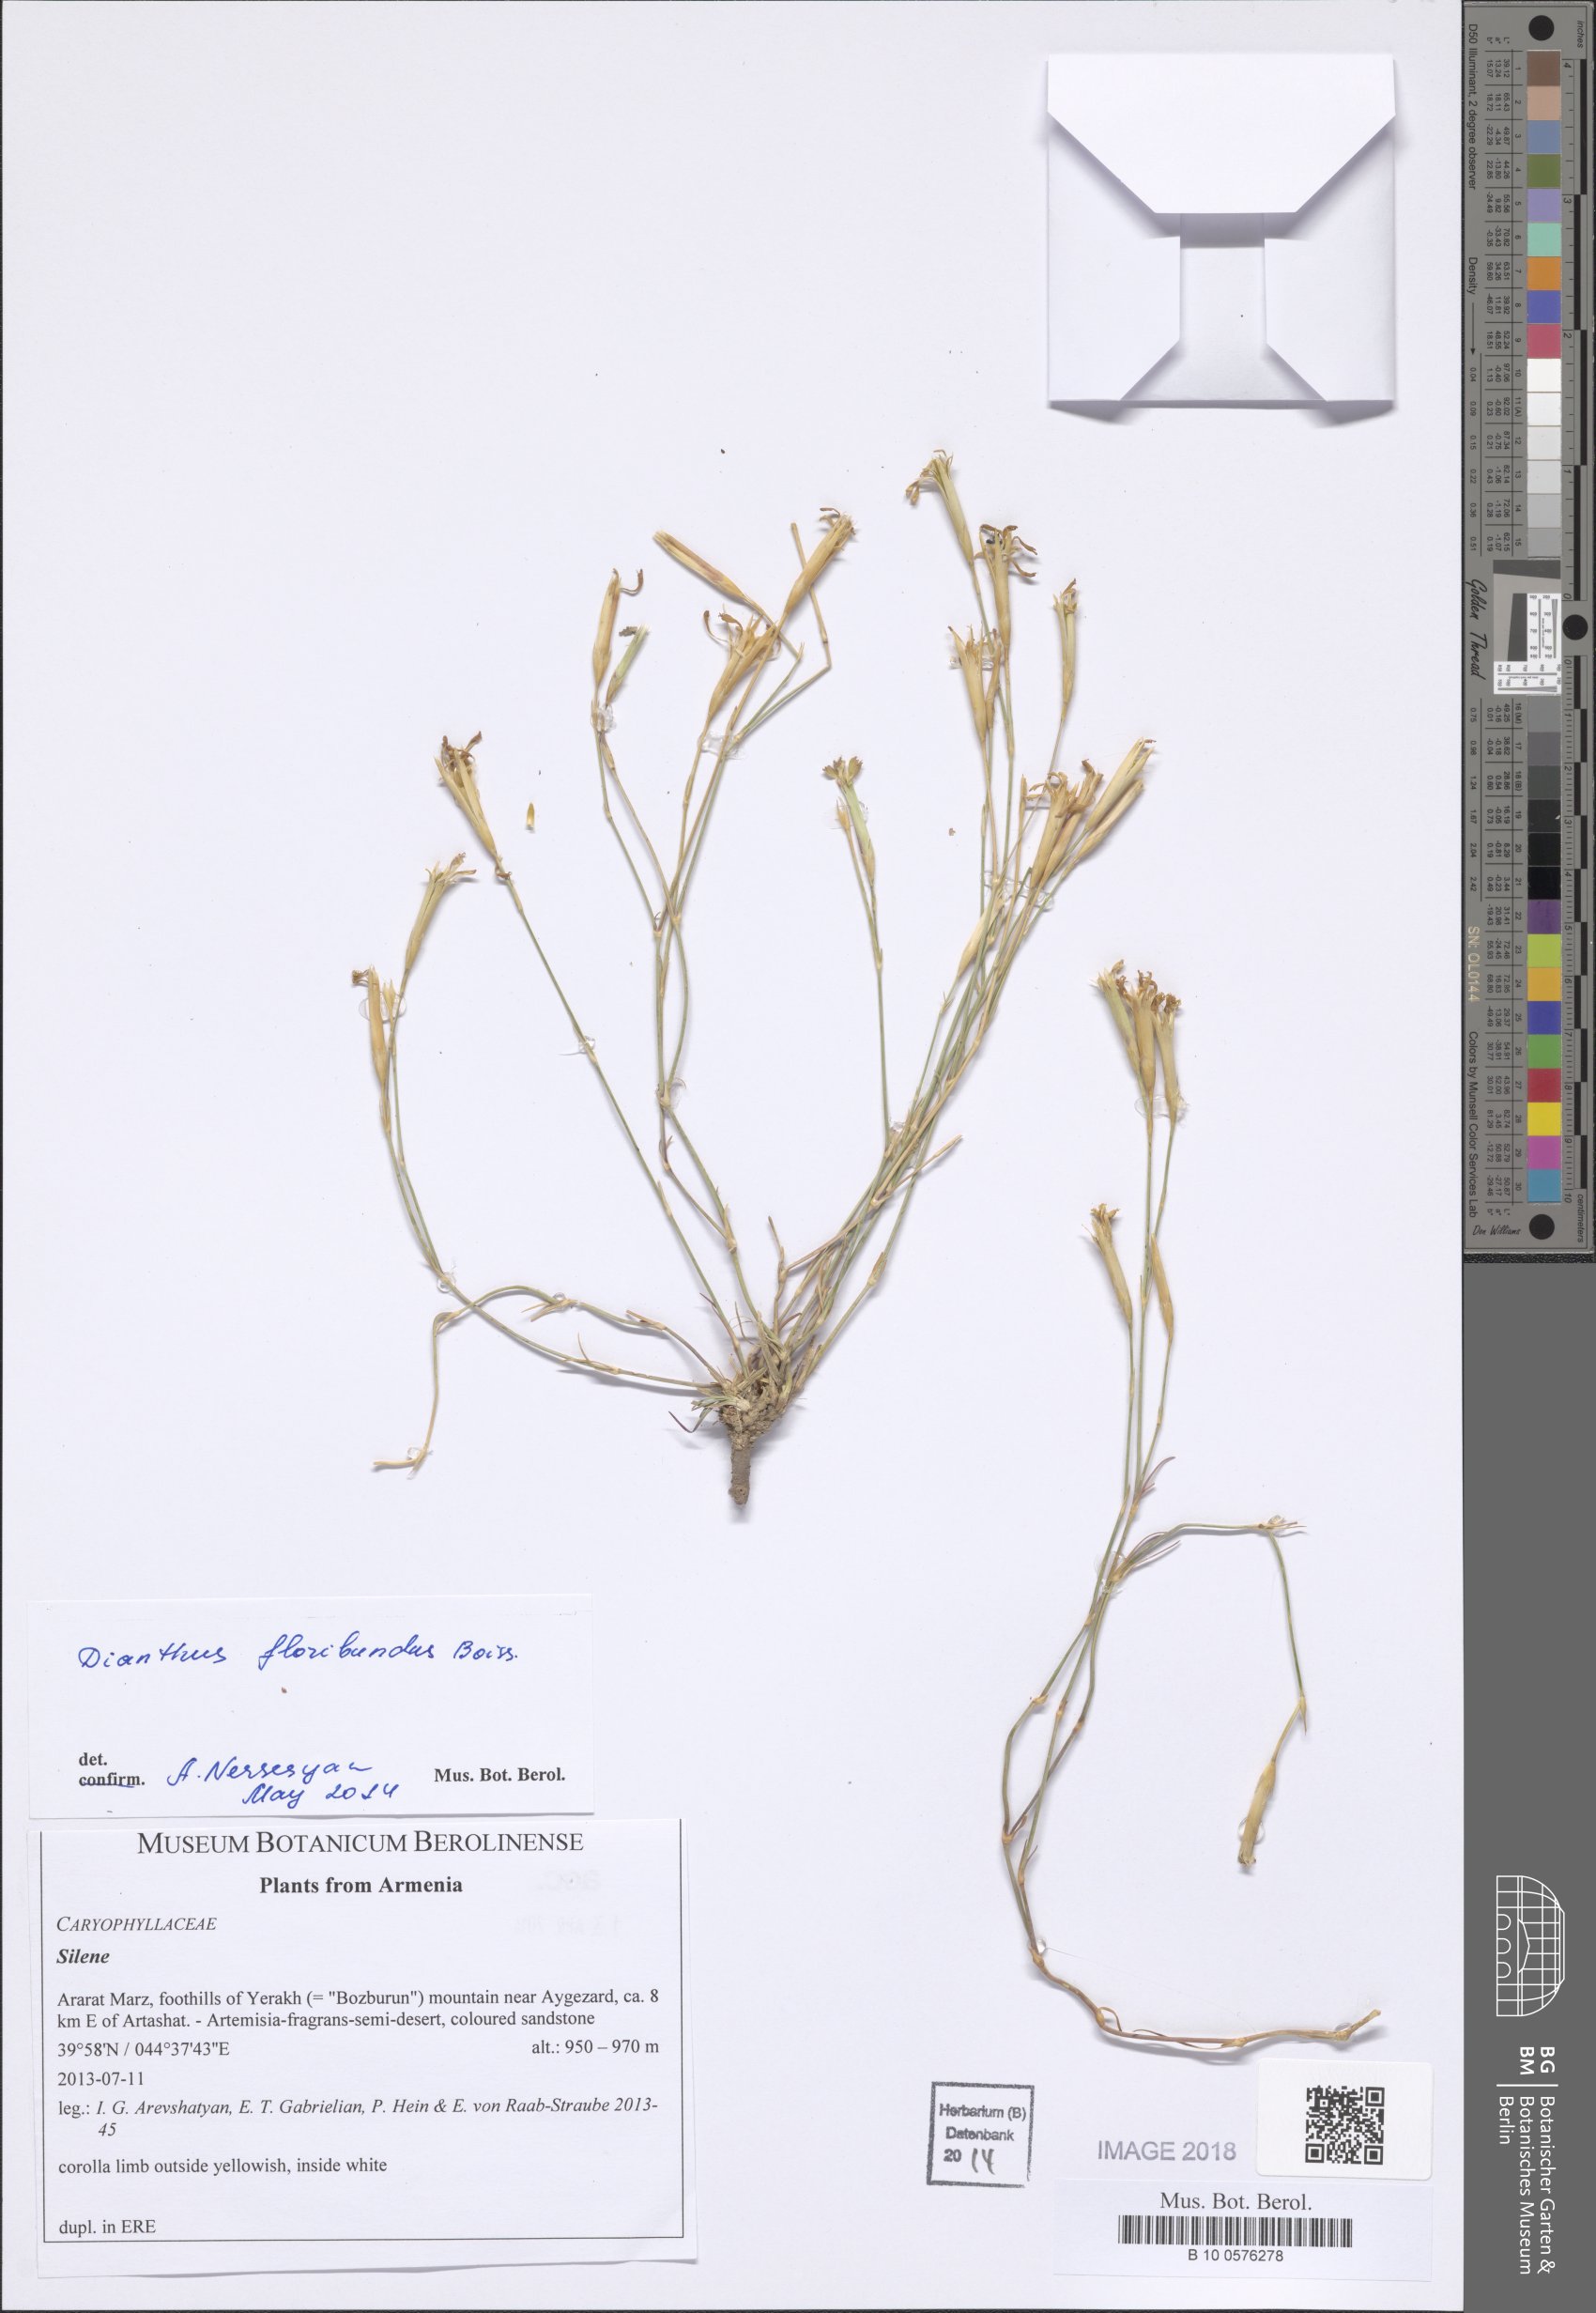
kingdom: Plantae
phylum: Tracheophyta
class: Magnoliopsida
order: Caryophyllales
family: Caryophyllaceae
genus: Dianthus
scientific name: Dianthus floribundus
